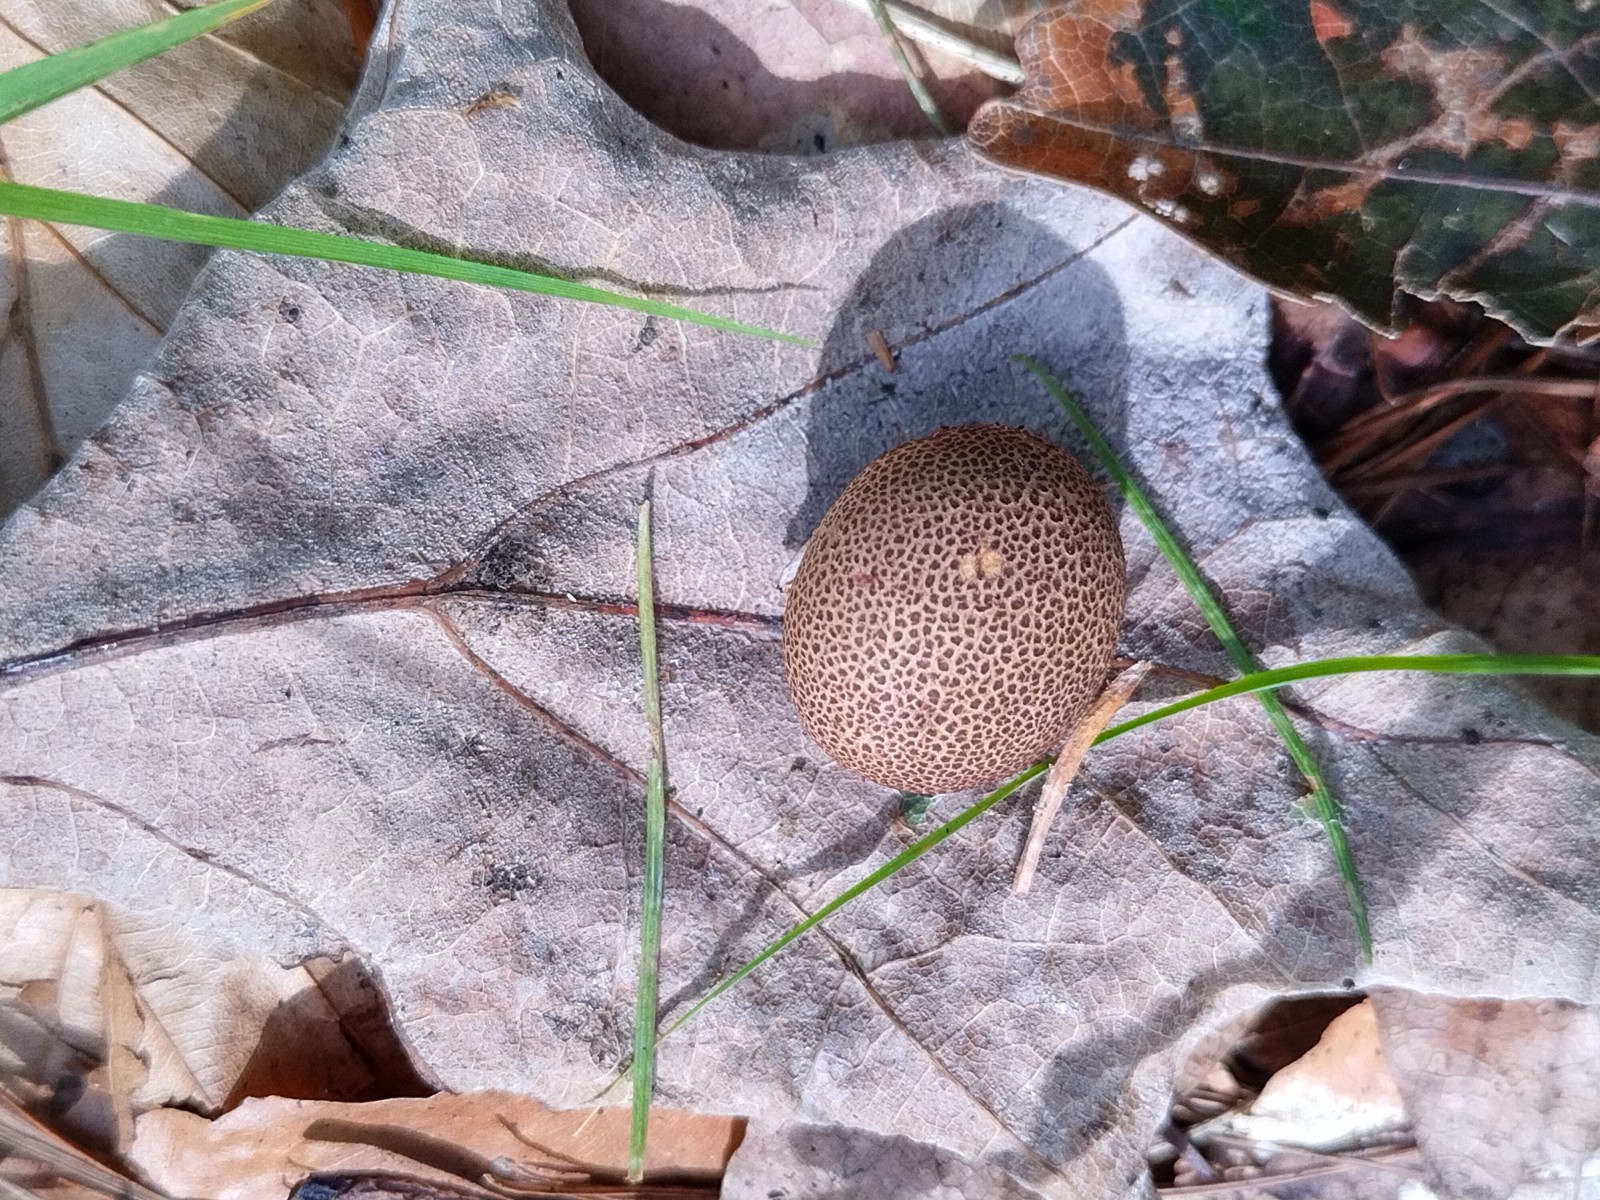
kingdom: Fungi
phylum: Basidiomycota
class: Agaricomycetes
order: Boletales
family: Sclerodermataceae
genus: Scleroderma
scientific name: Scleroderma citrinum
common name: almindelig bruskbold
